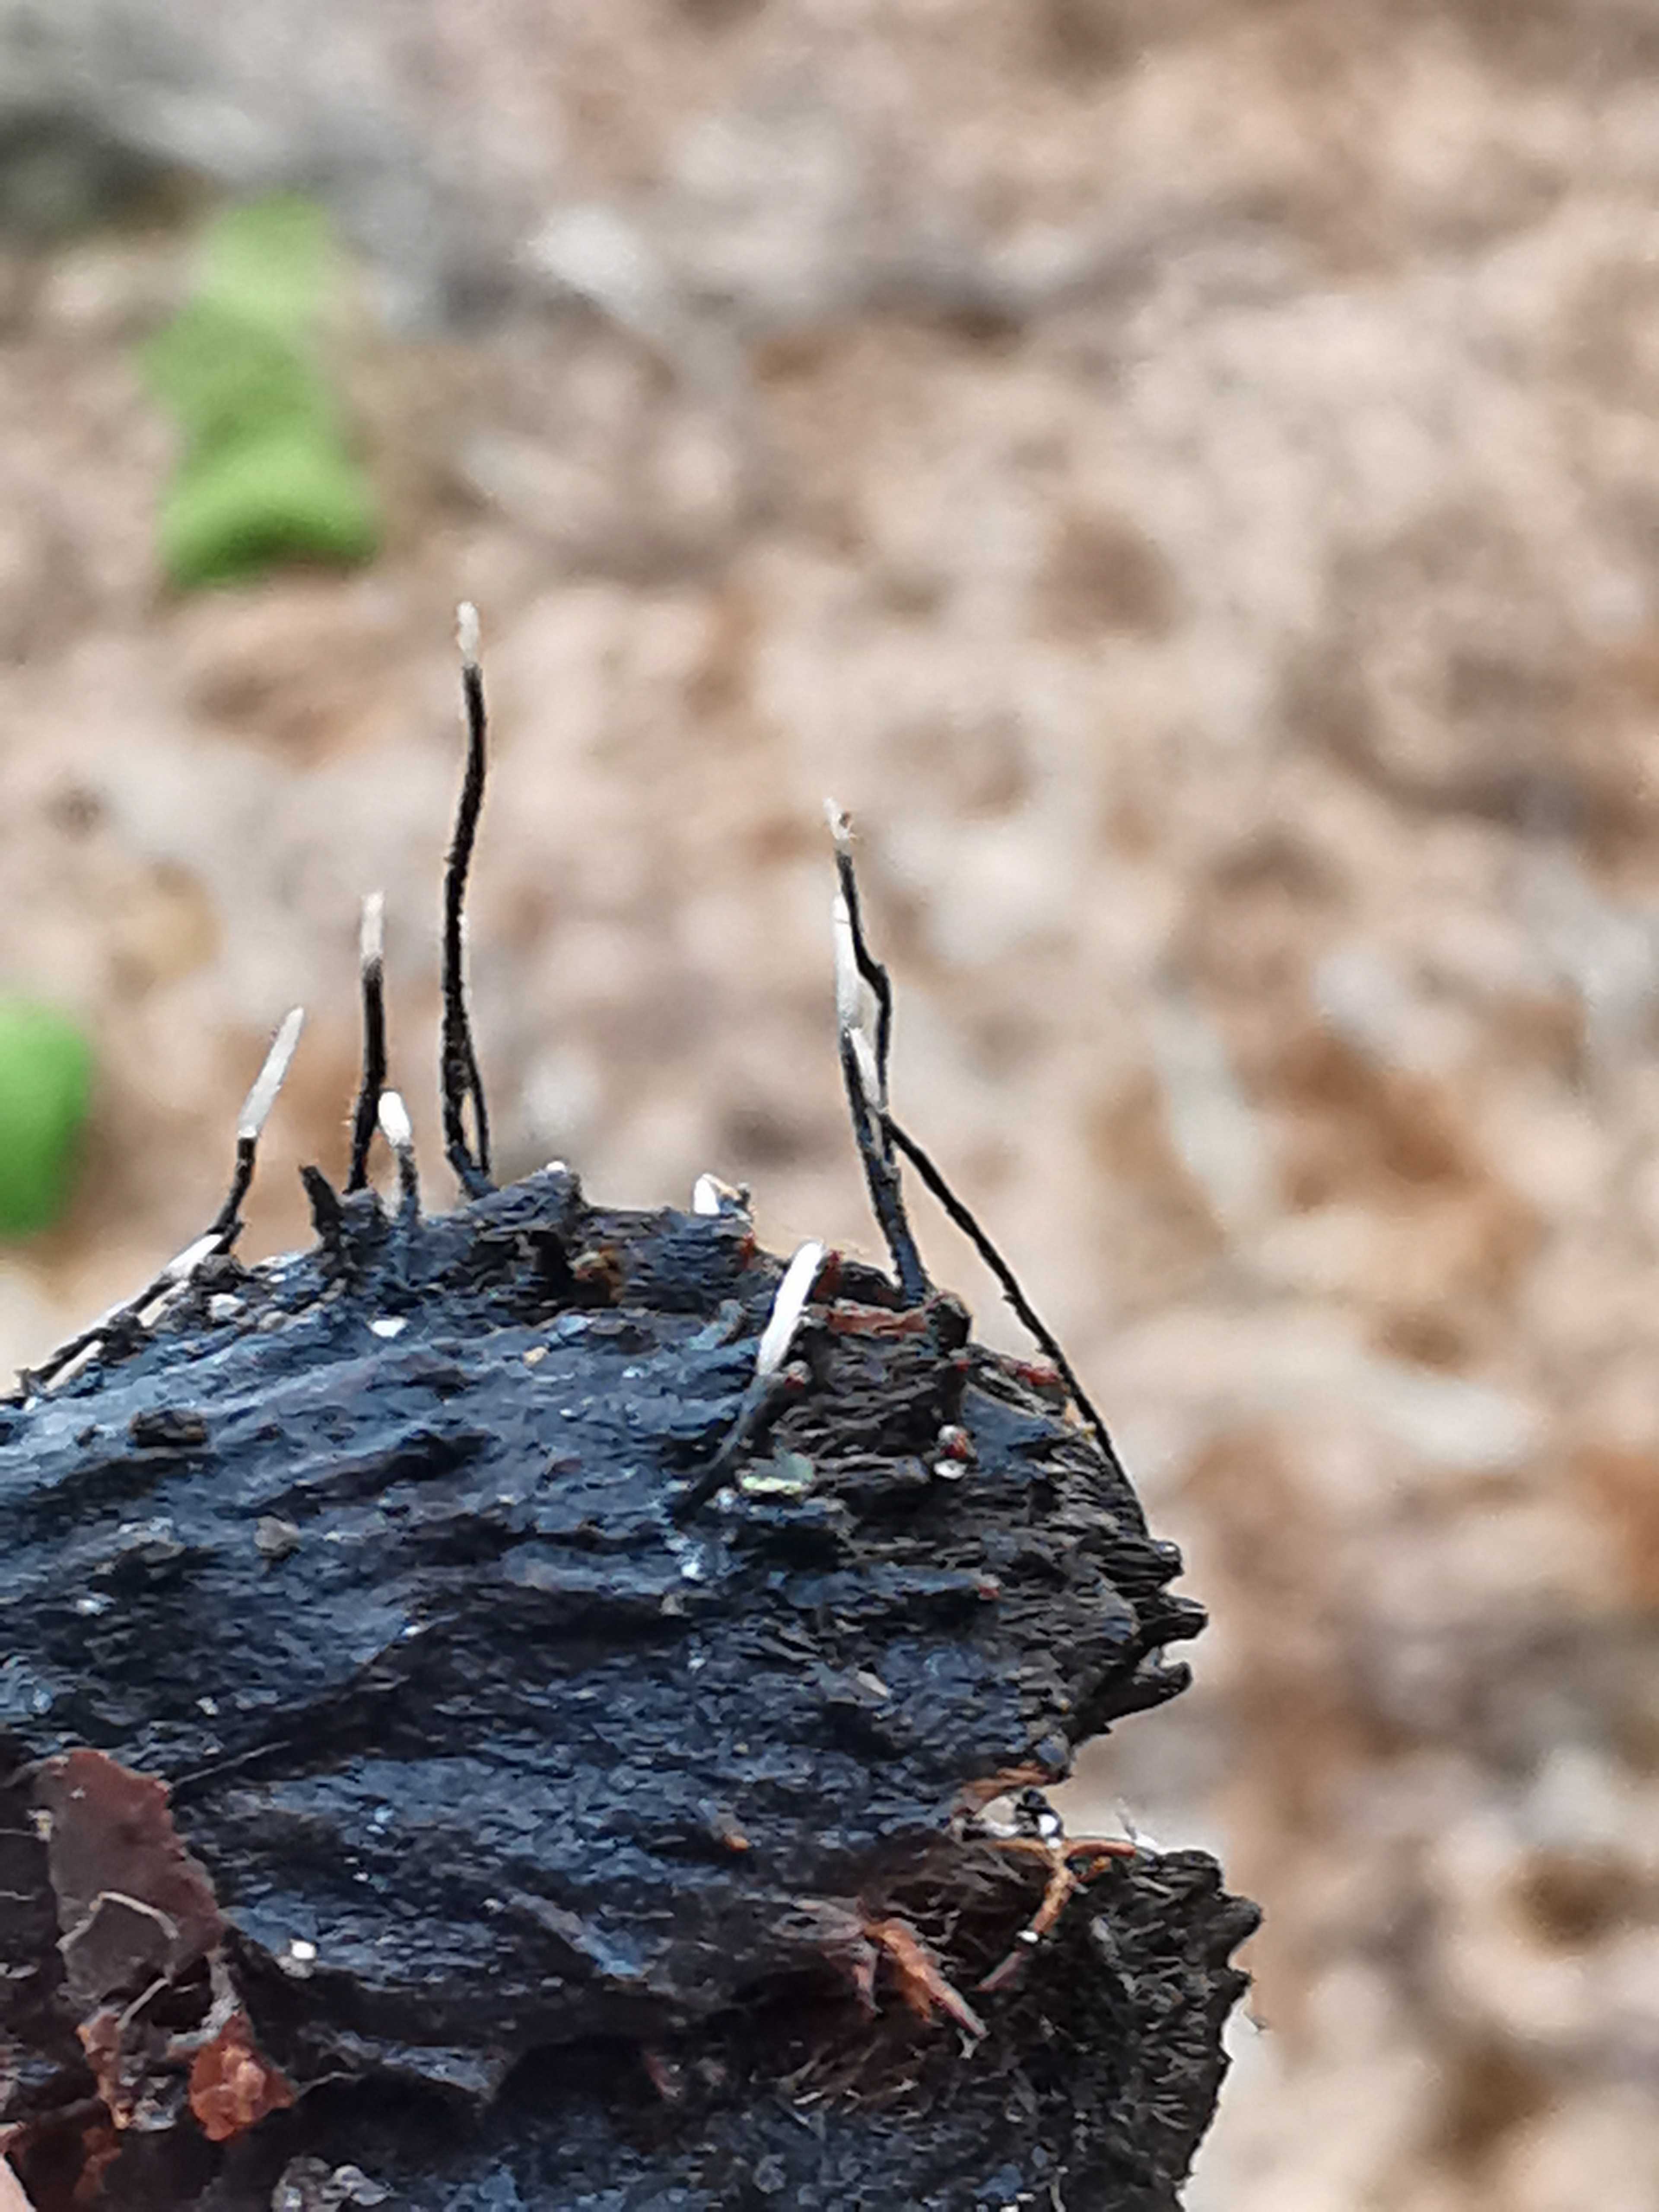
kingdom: Fungi
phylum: Ascomycota
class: Sordariomycetes
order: Xylariales
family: Xylariaceae
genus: Xylaria
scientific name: Xylaria carpophila
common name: bogskål-stødsvamp
